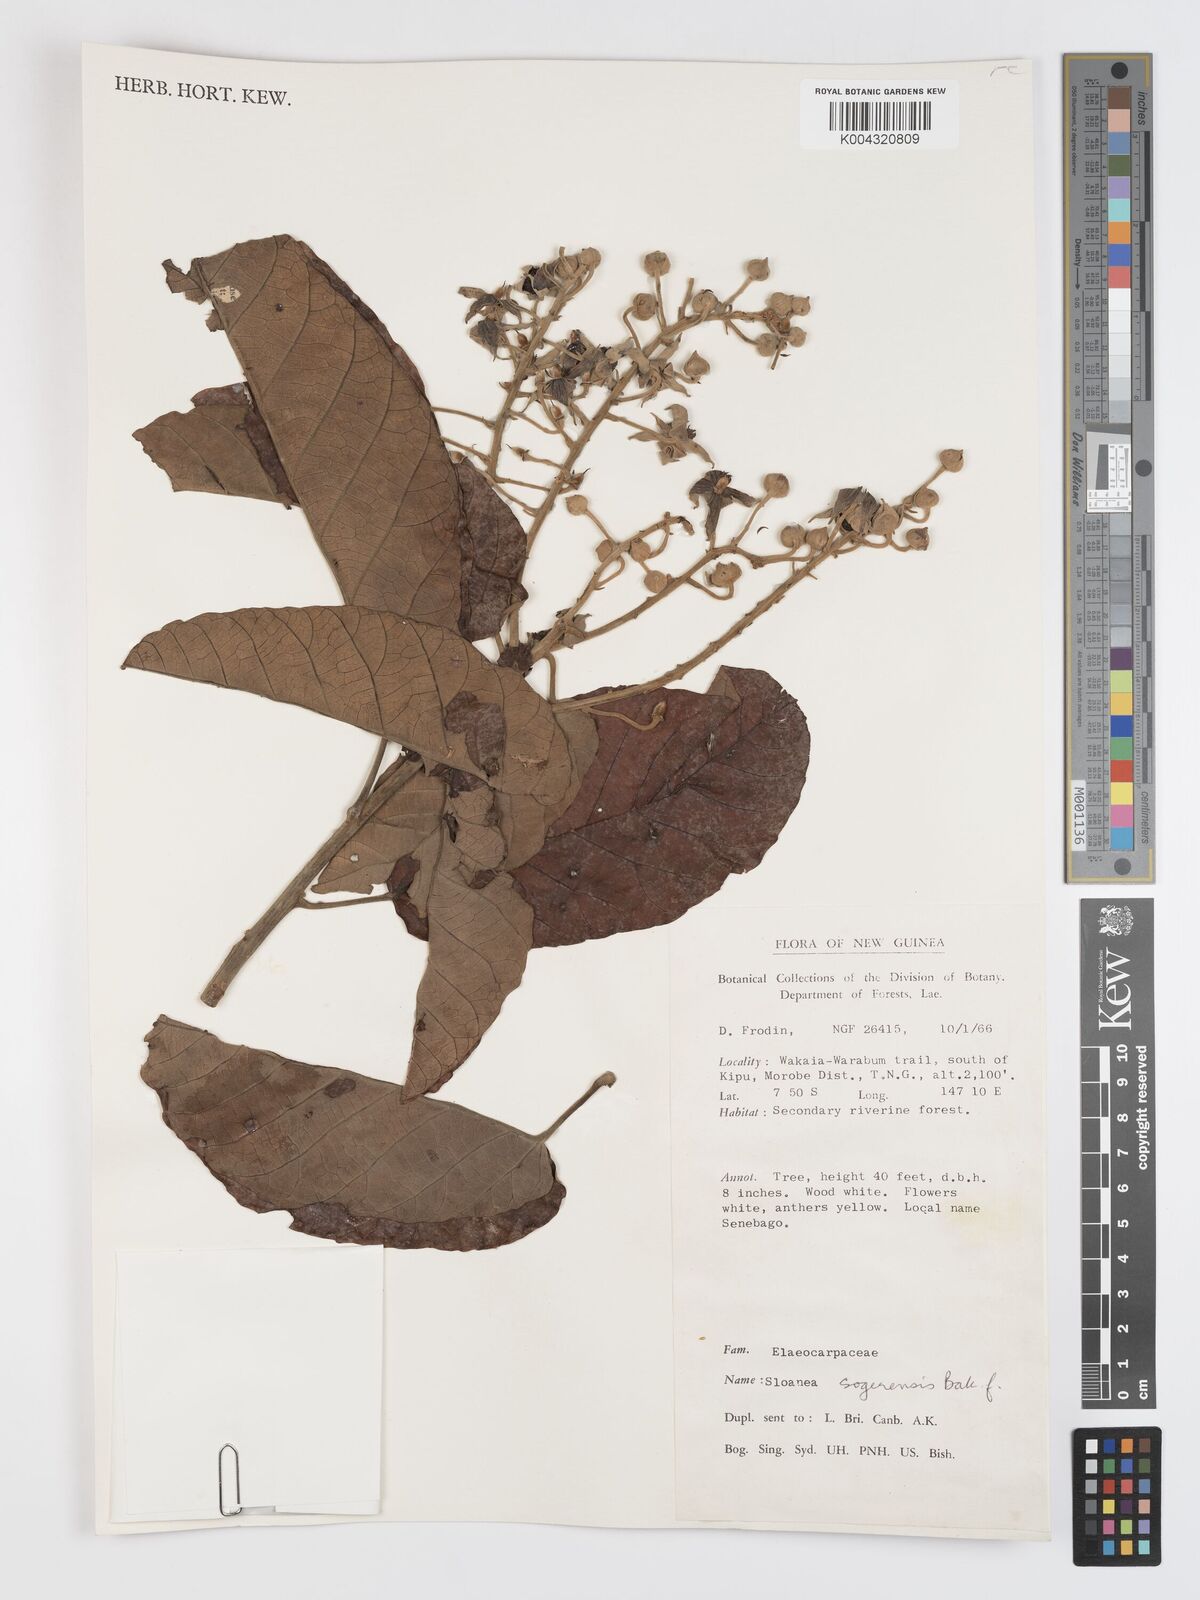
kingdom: Plantae
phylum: Tracheophyta
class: Magnoliopsida
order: Oxalidales
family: Elaeocarpaceae
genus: Sloanea
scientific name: Sloanea sogerensis
